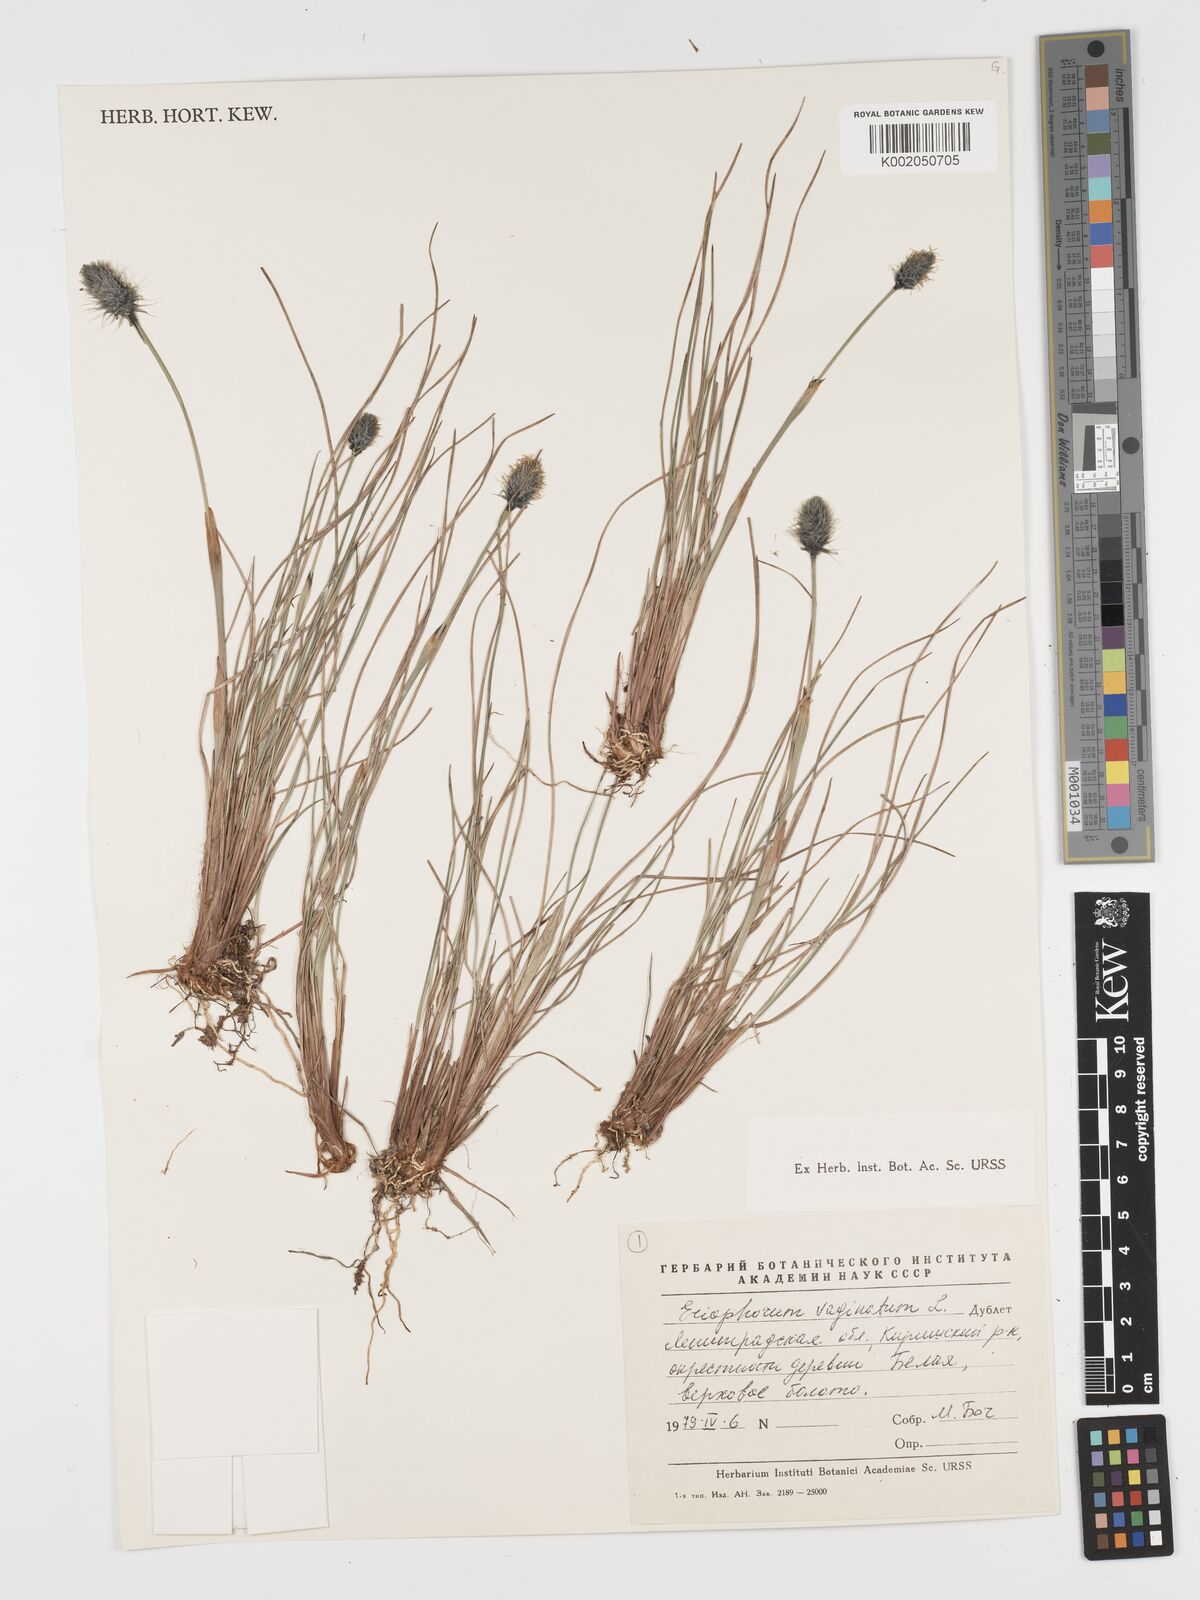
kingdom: Plantae
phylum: Tracheophyta
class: Liliopsida
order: Poales
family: Cyperaceae
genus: Eriophorum
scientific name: Eriophorum vaginatum
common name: Hare's-tail cottongrass
